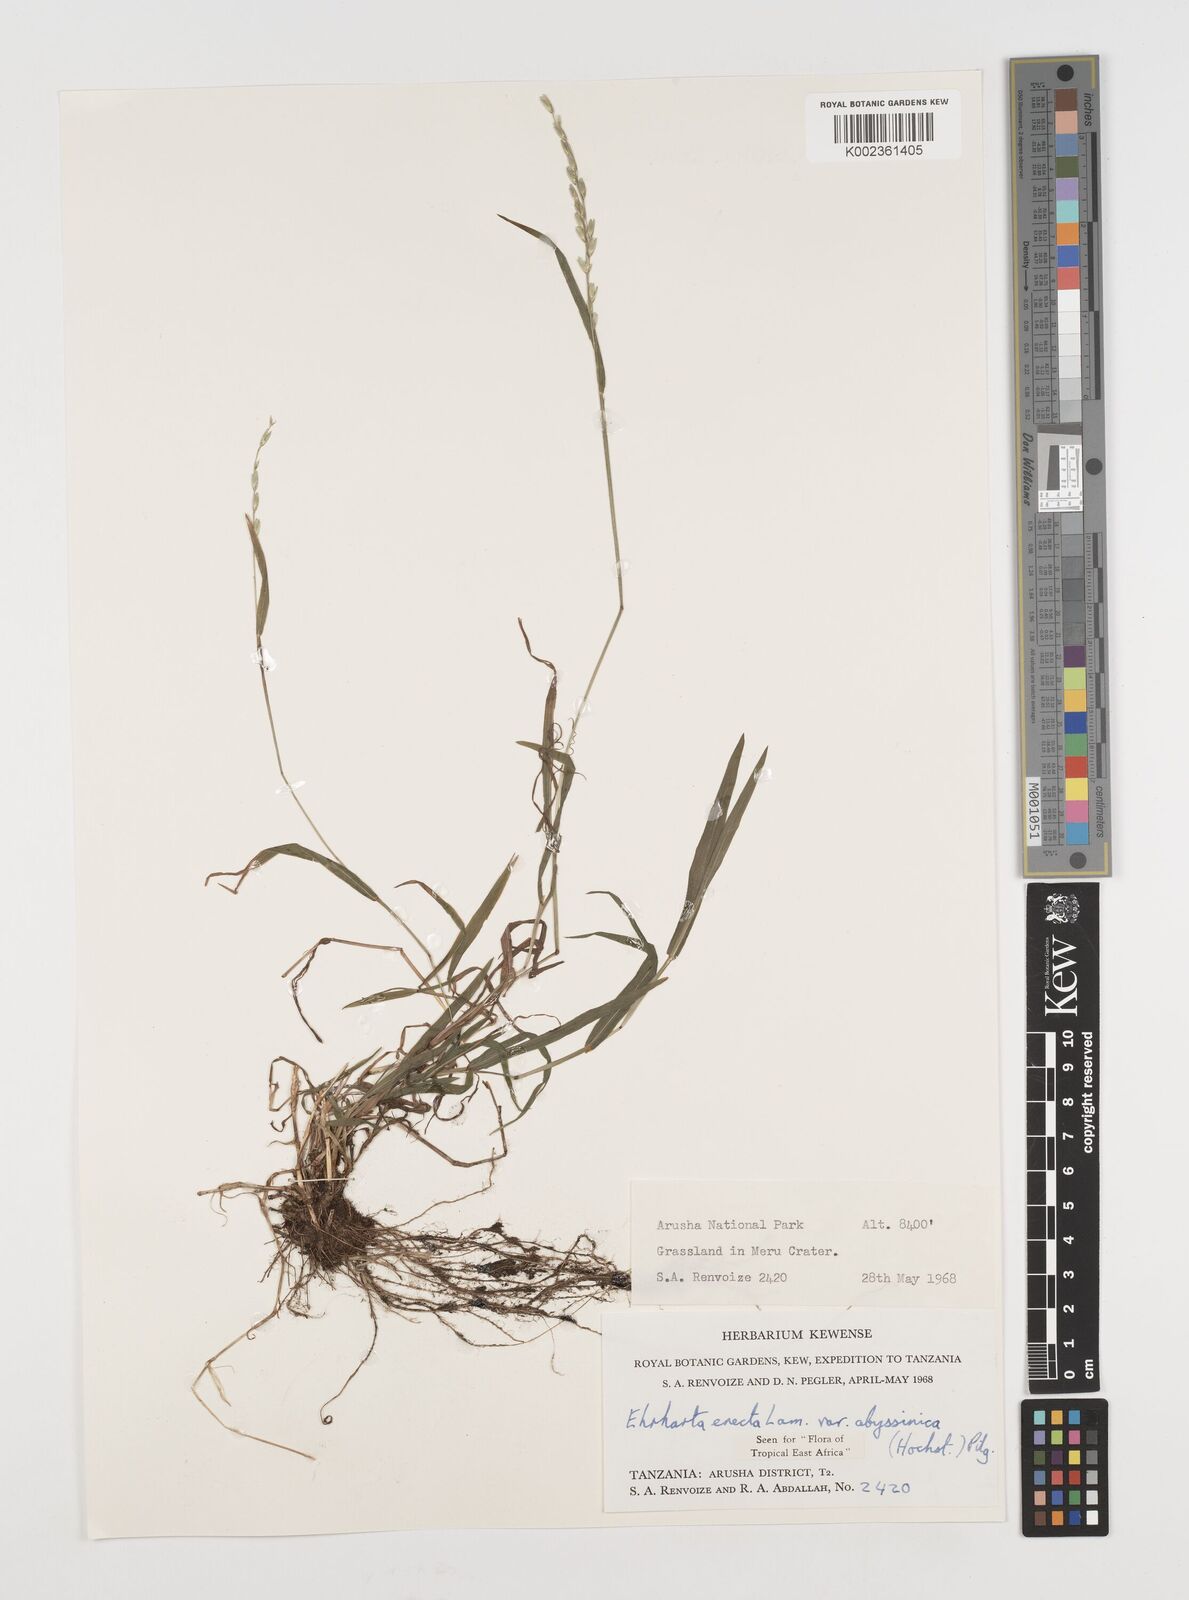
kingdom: Plantae
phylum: Tracheophyta
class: Liliopsida
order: Poales
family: Poaceae
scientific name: Poaceae
